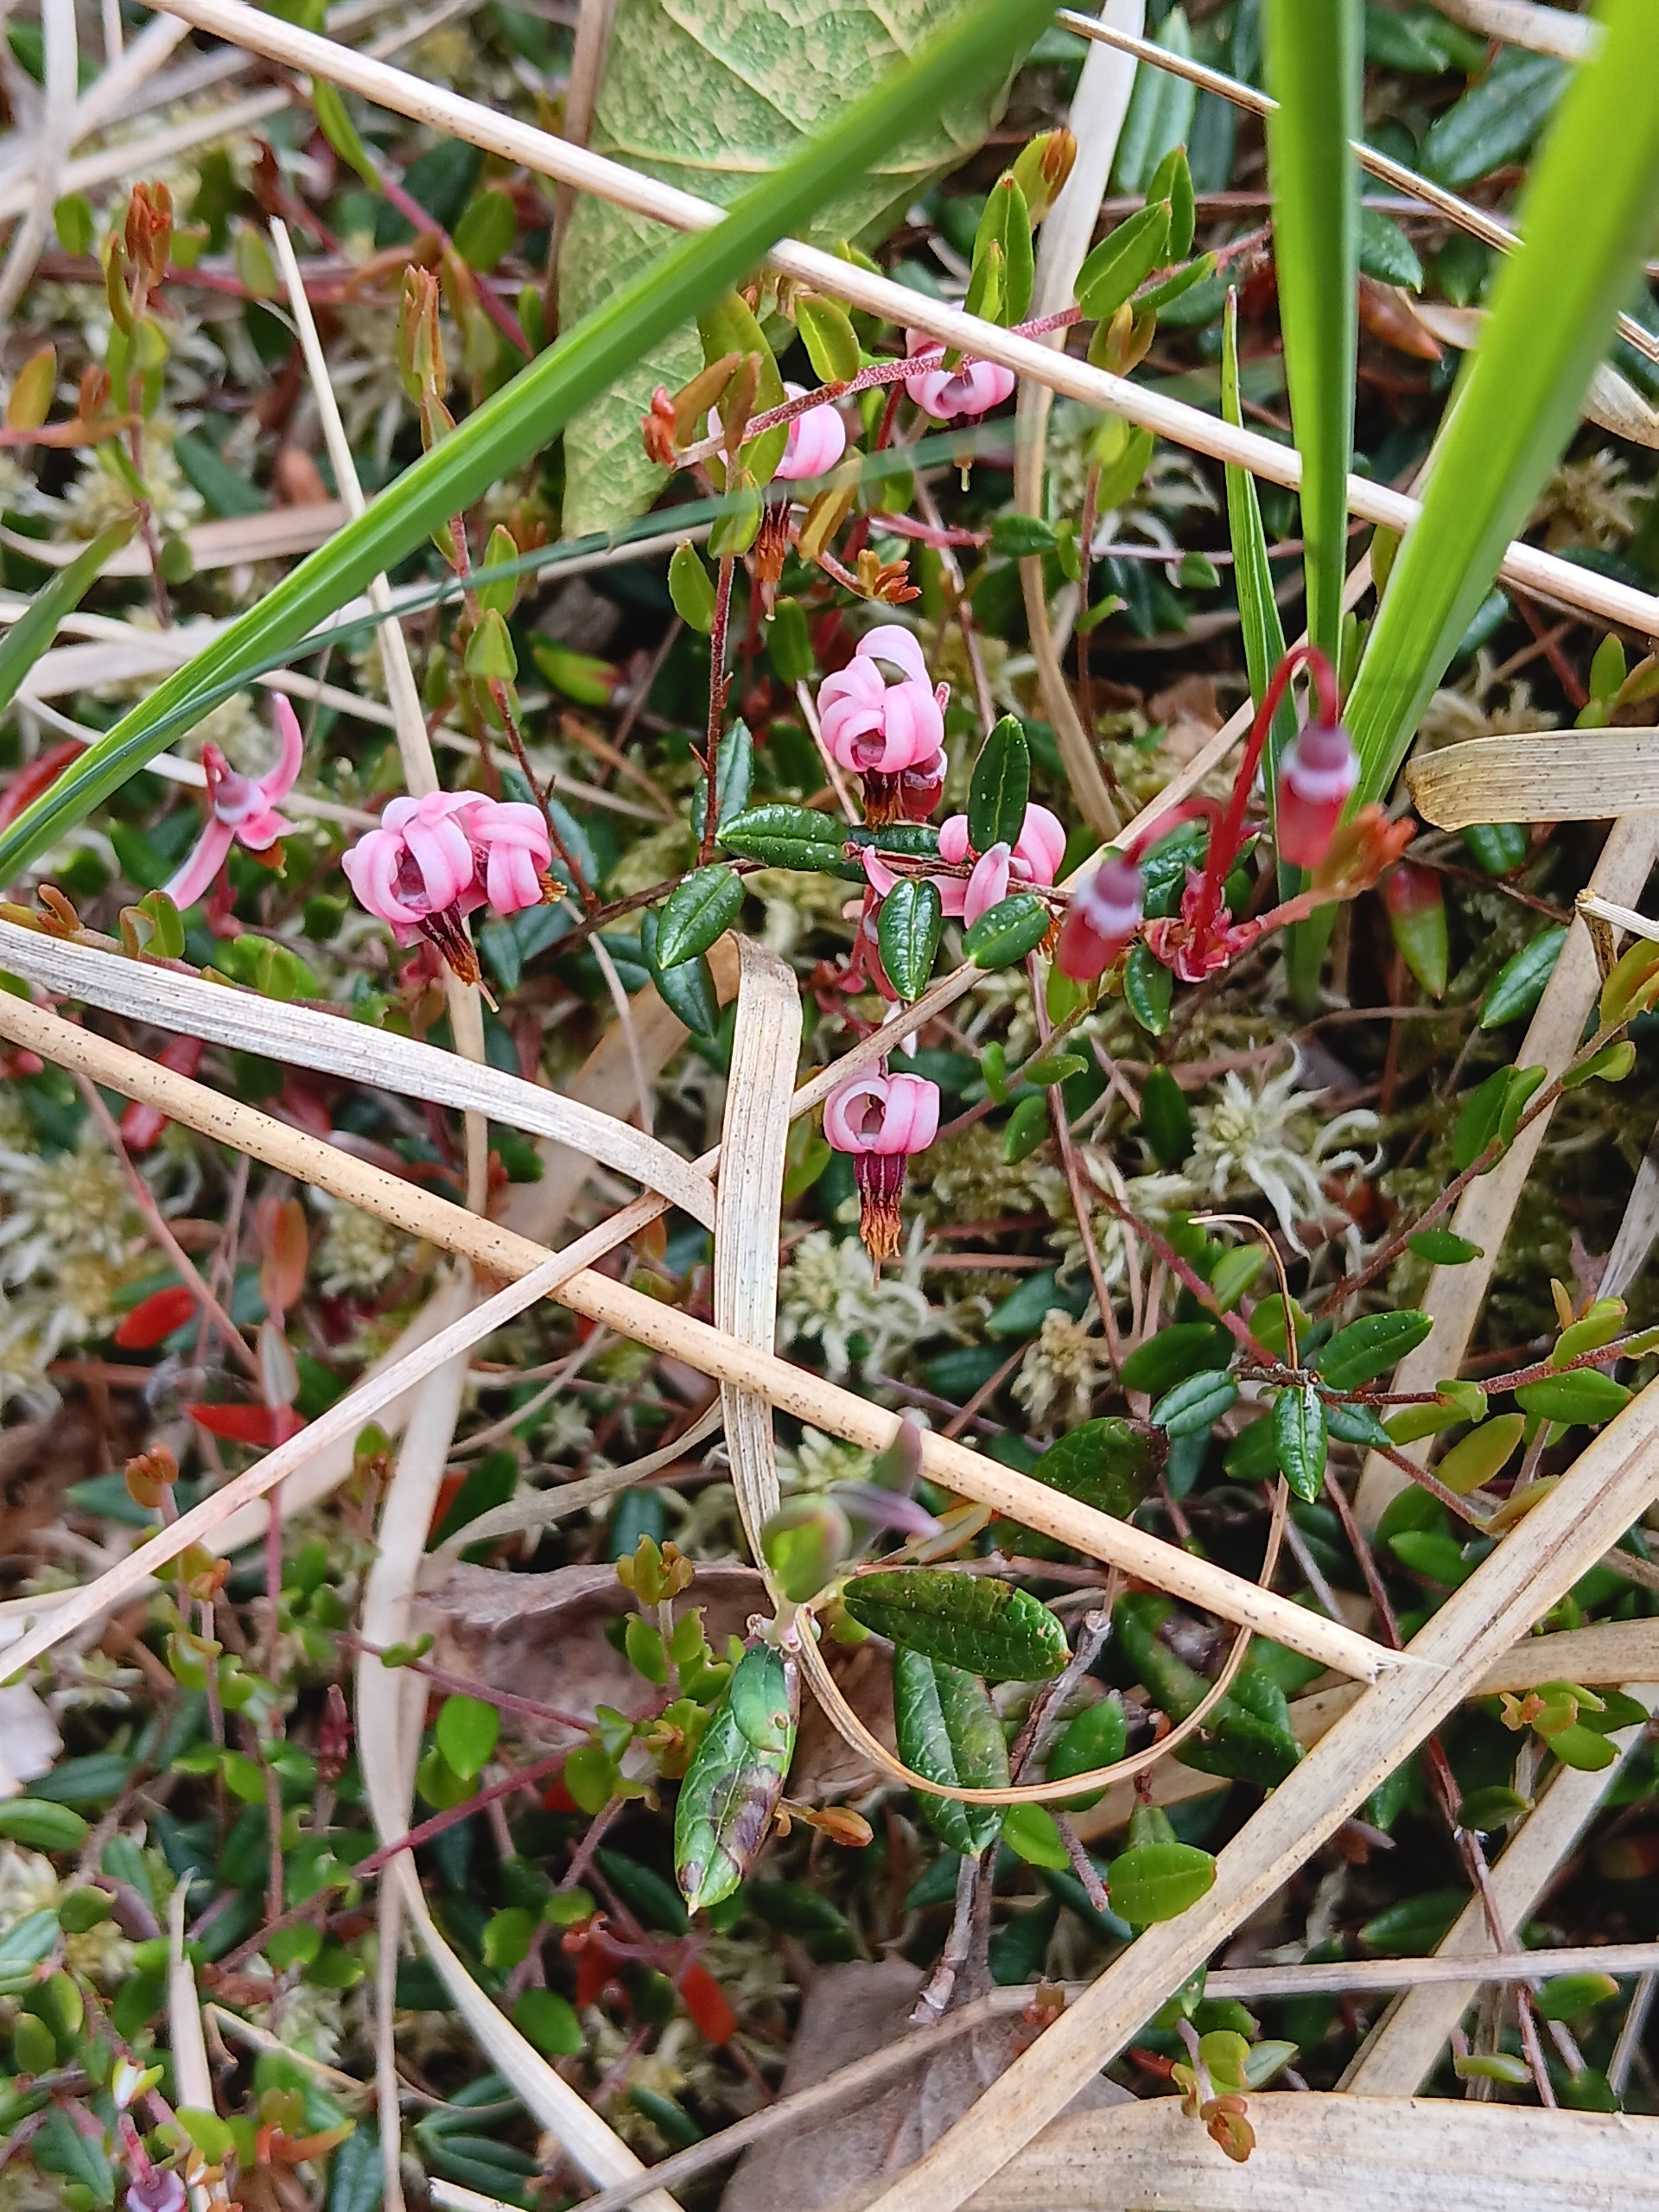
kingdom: Plantae
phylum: Tracheophyta
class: Magnoliopsida
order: Ericales
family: Ericaceae
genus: Vaccinium
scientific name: Vaccinium oxycoccos
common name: Tranebær
